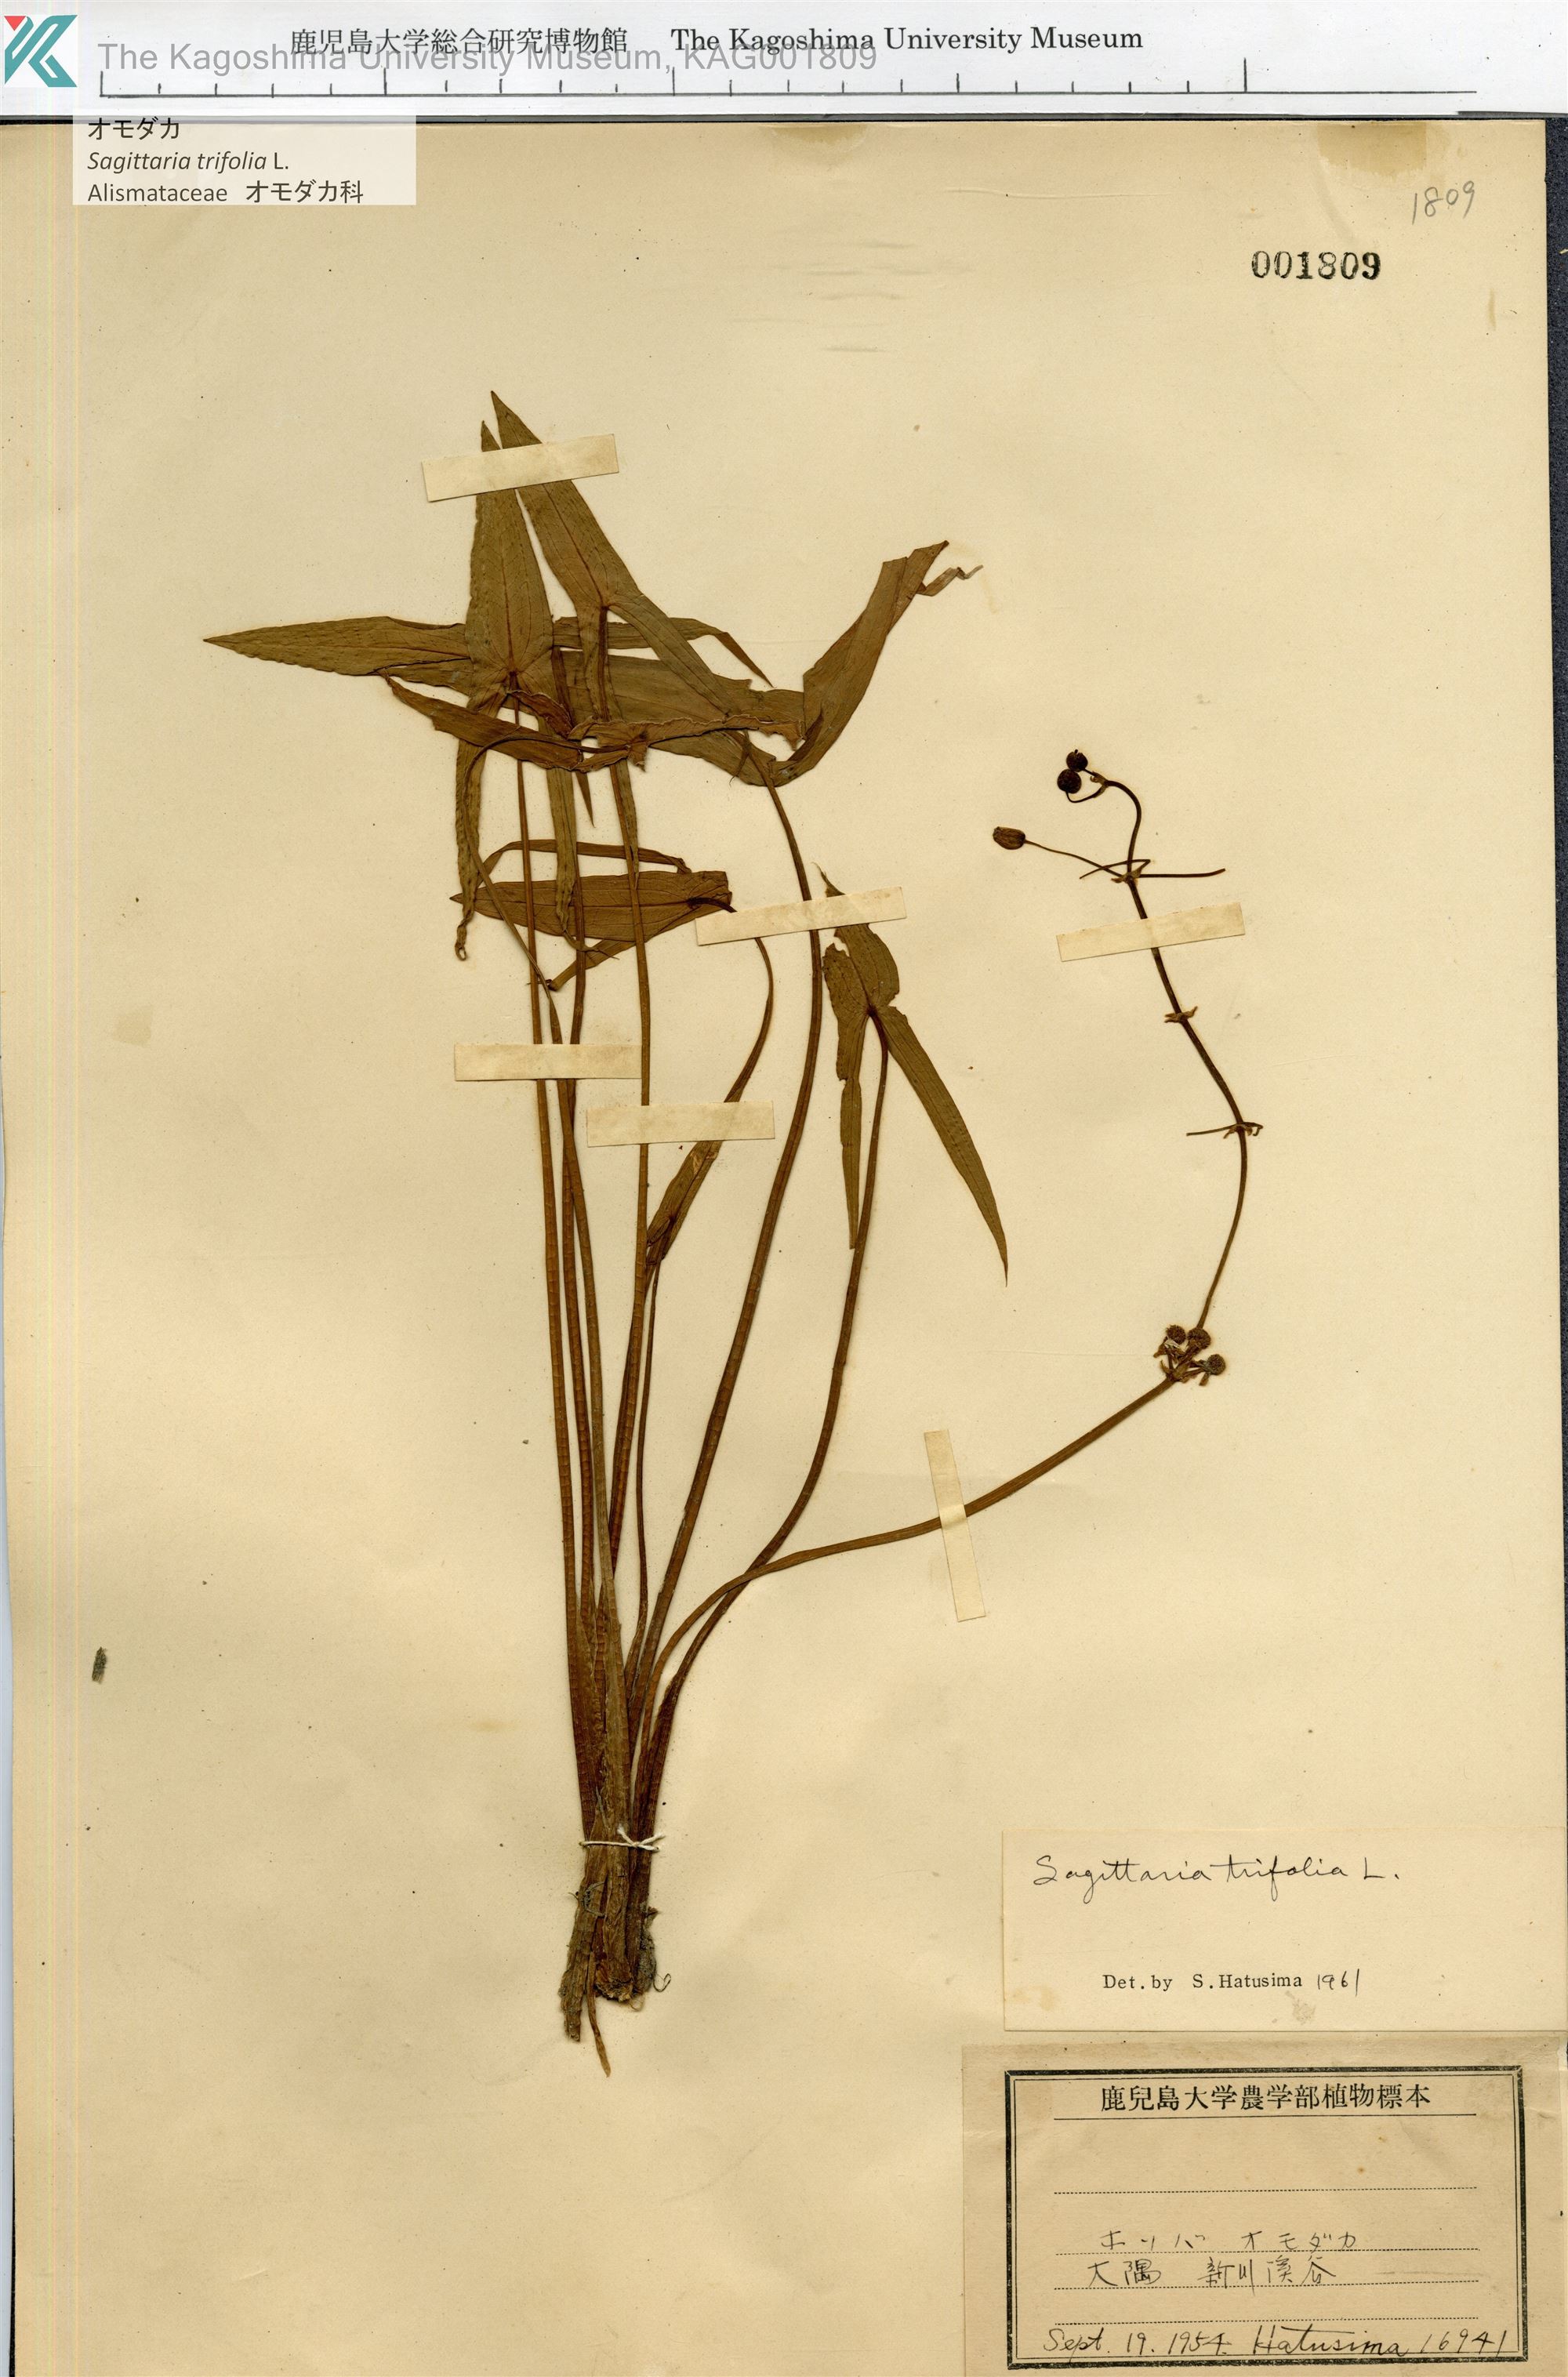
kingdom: Plantae
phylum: Tracheophyta
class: Liliopsida
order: Alismatales
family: Alismataceae
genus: Sagittaria
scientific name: Sagittaria trifolia
